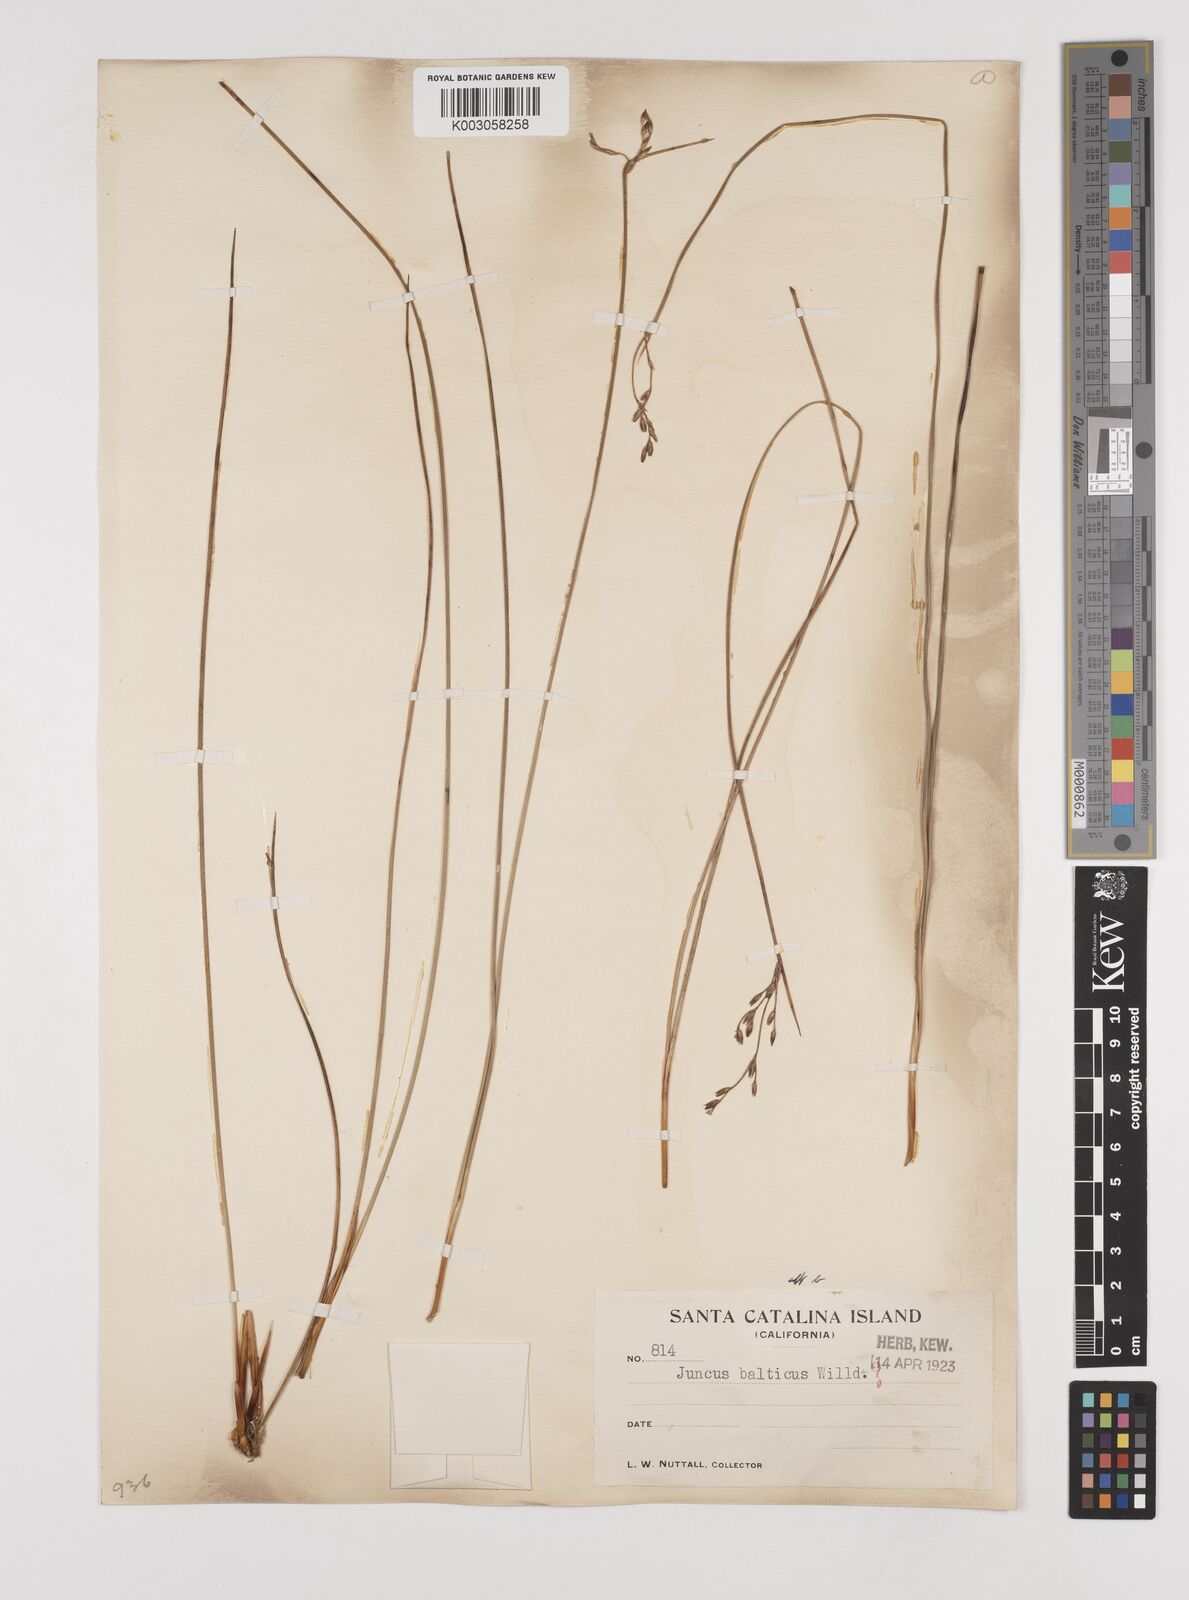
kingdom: Plantae
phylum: Tracheophyta
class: Liliopsida
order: Poales
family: Juncaceae
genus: Juncus
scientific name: Juncus
